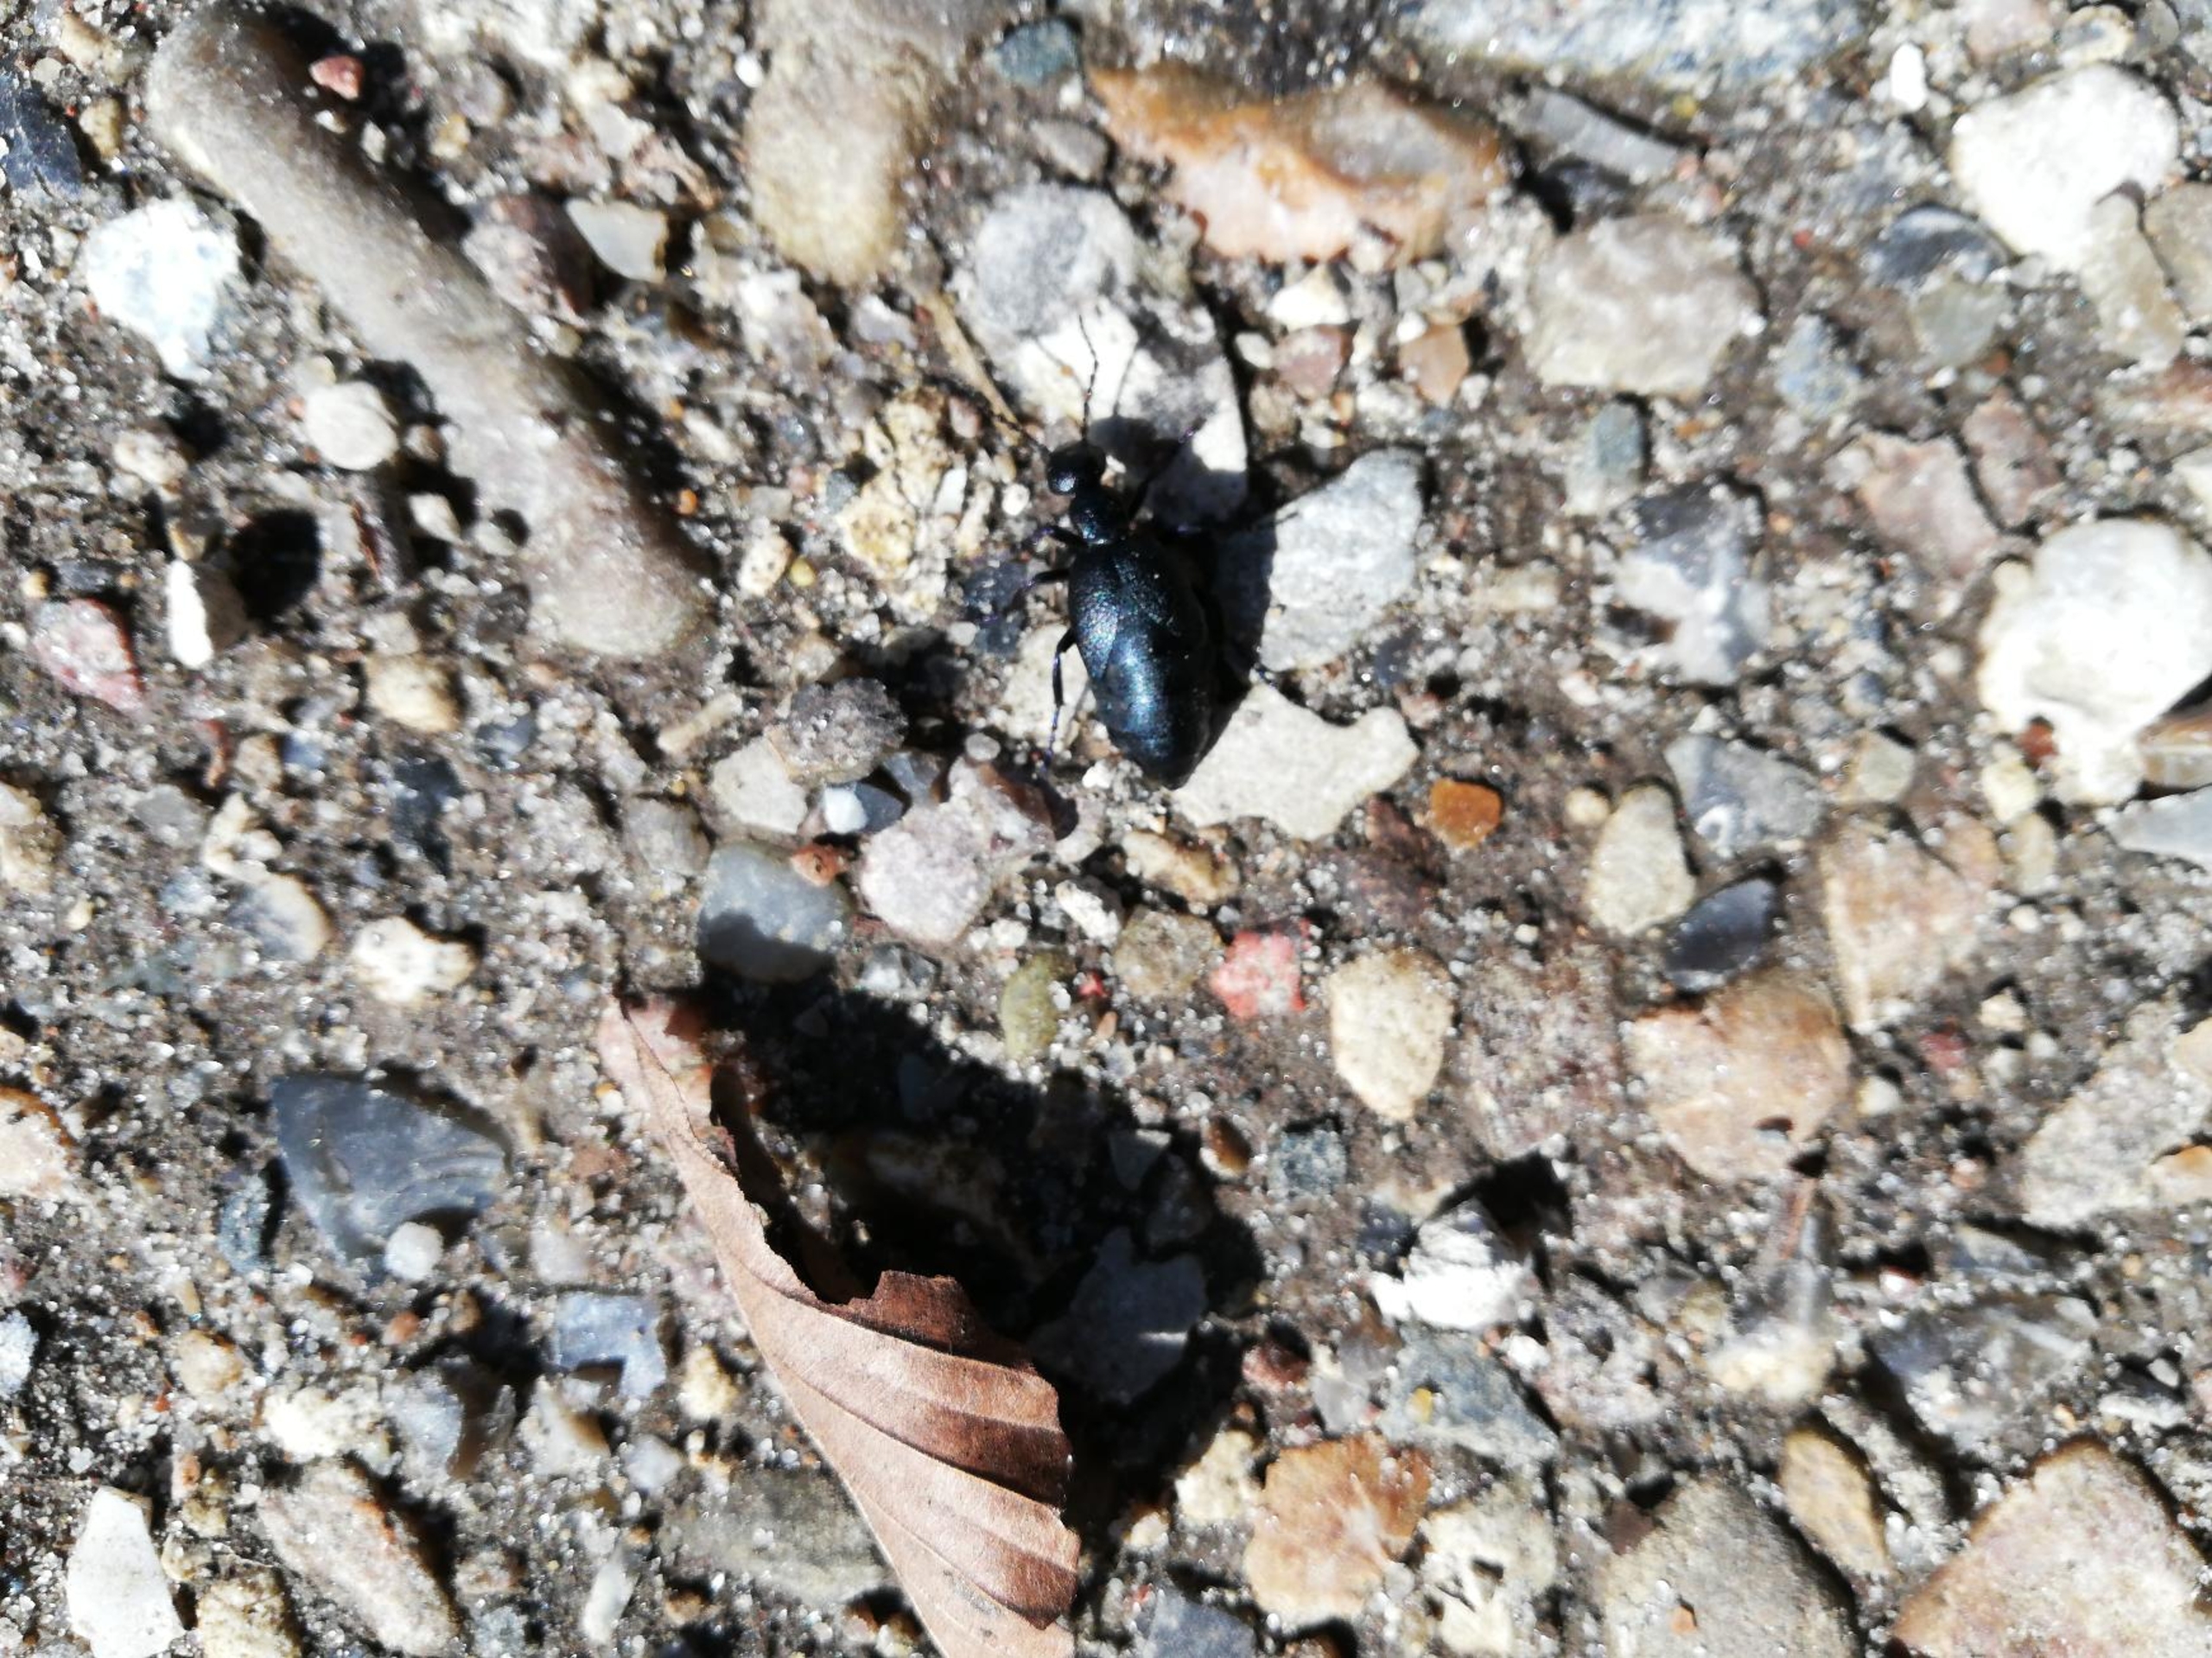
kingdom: Animalia
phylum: Arthropoda
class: Insecta
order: Coleoptera
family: Meloidae
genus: Meloe
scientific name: Meloe proscarabaeus
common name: Sort oliebille
